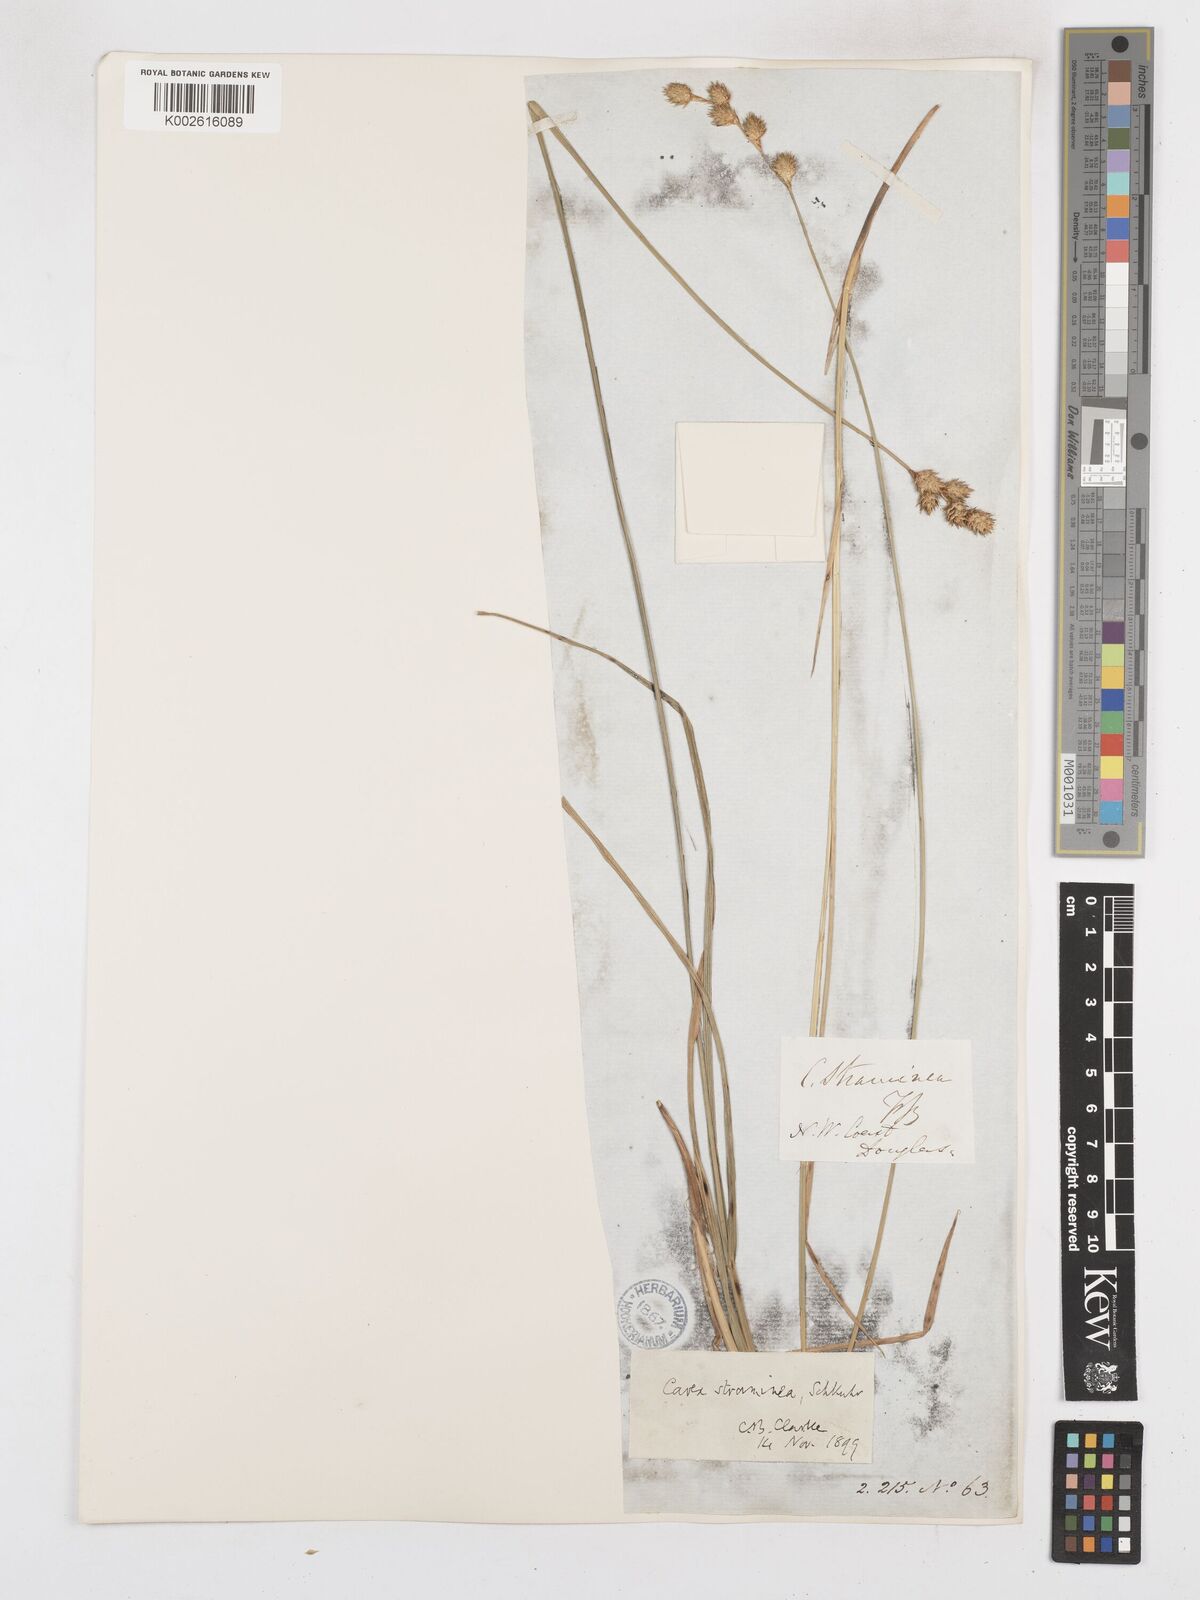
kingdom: Plantae
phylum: Tracheophyta
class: Liliopsida
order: Poales
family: Cyperaceae
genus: Carex
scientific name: Carex brevior
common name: Brevior sedge
